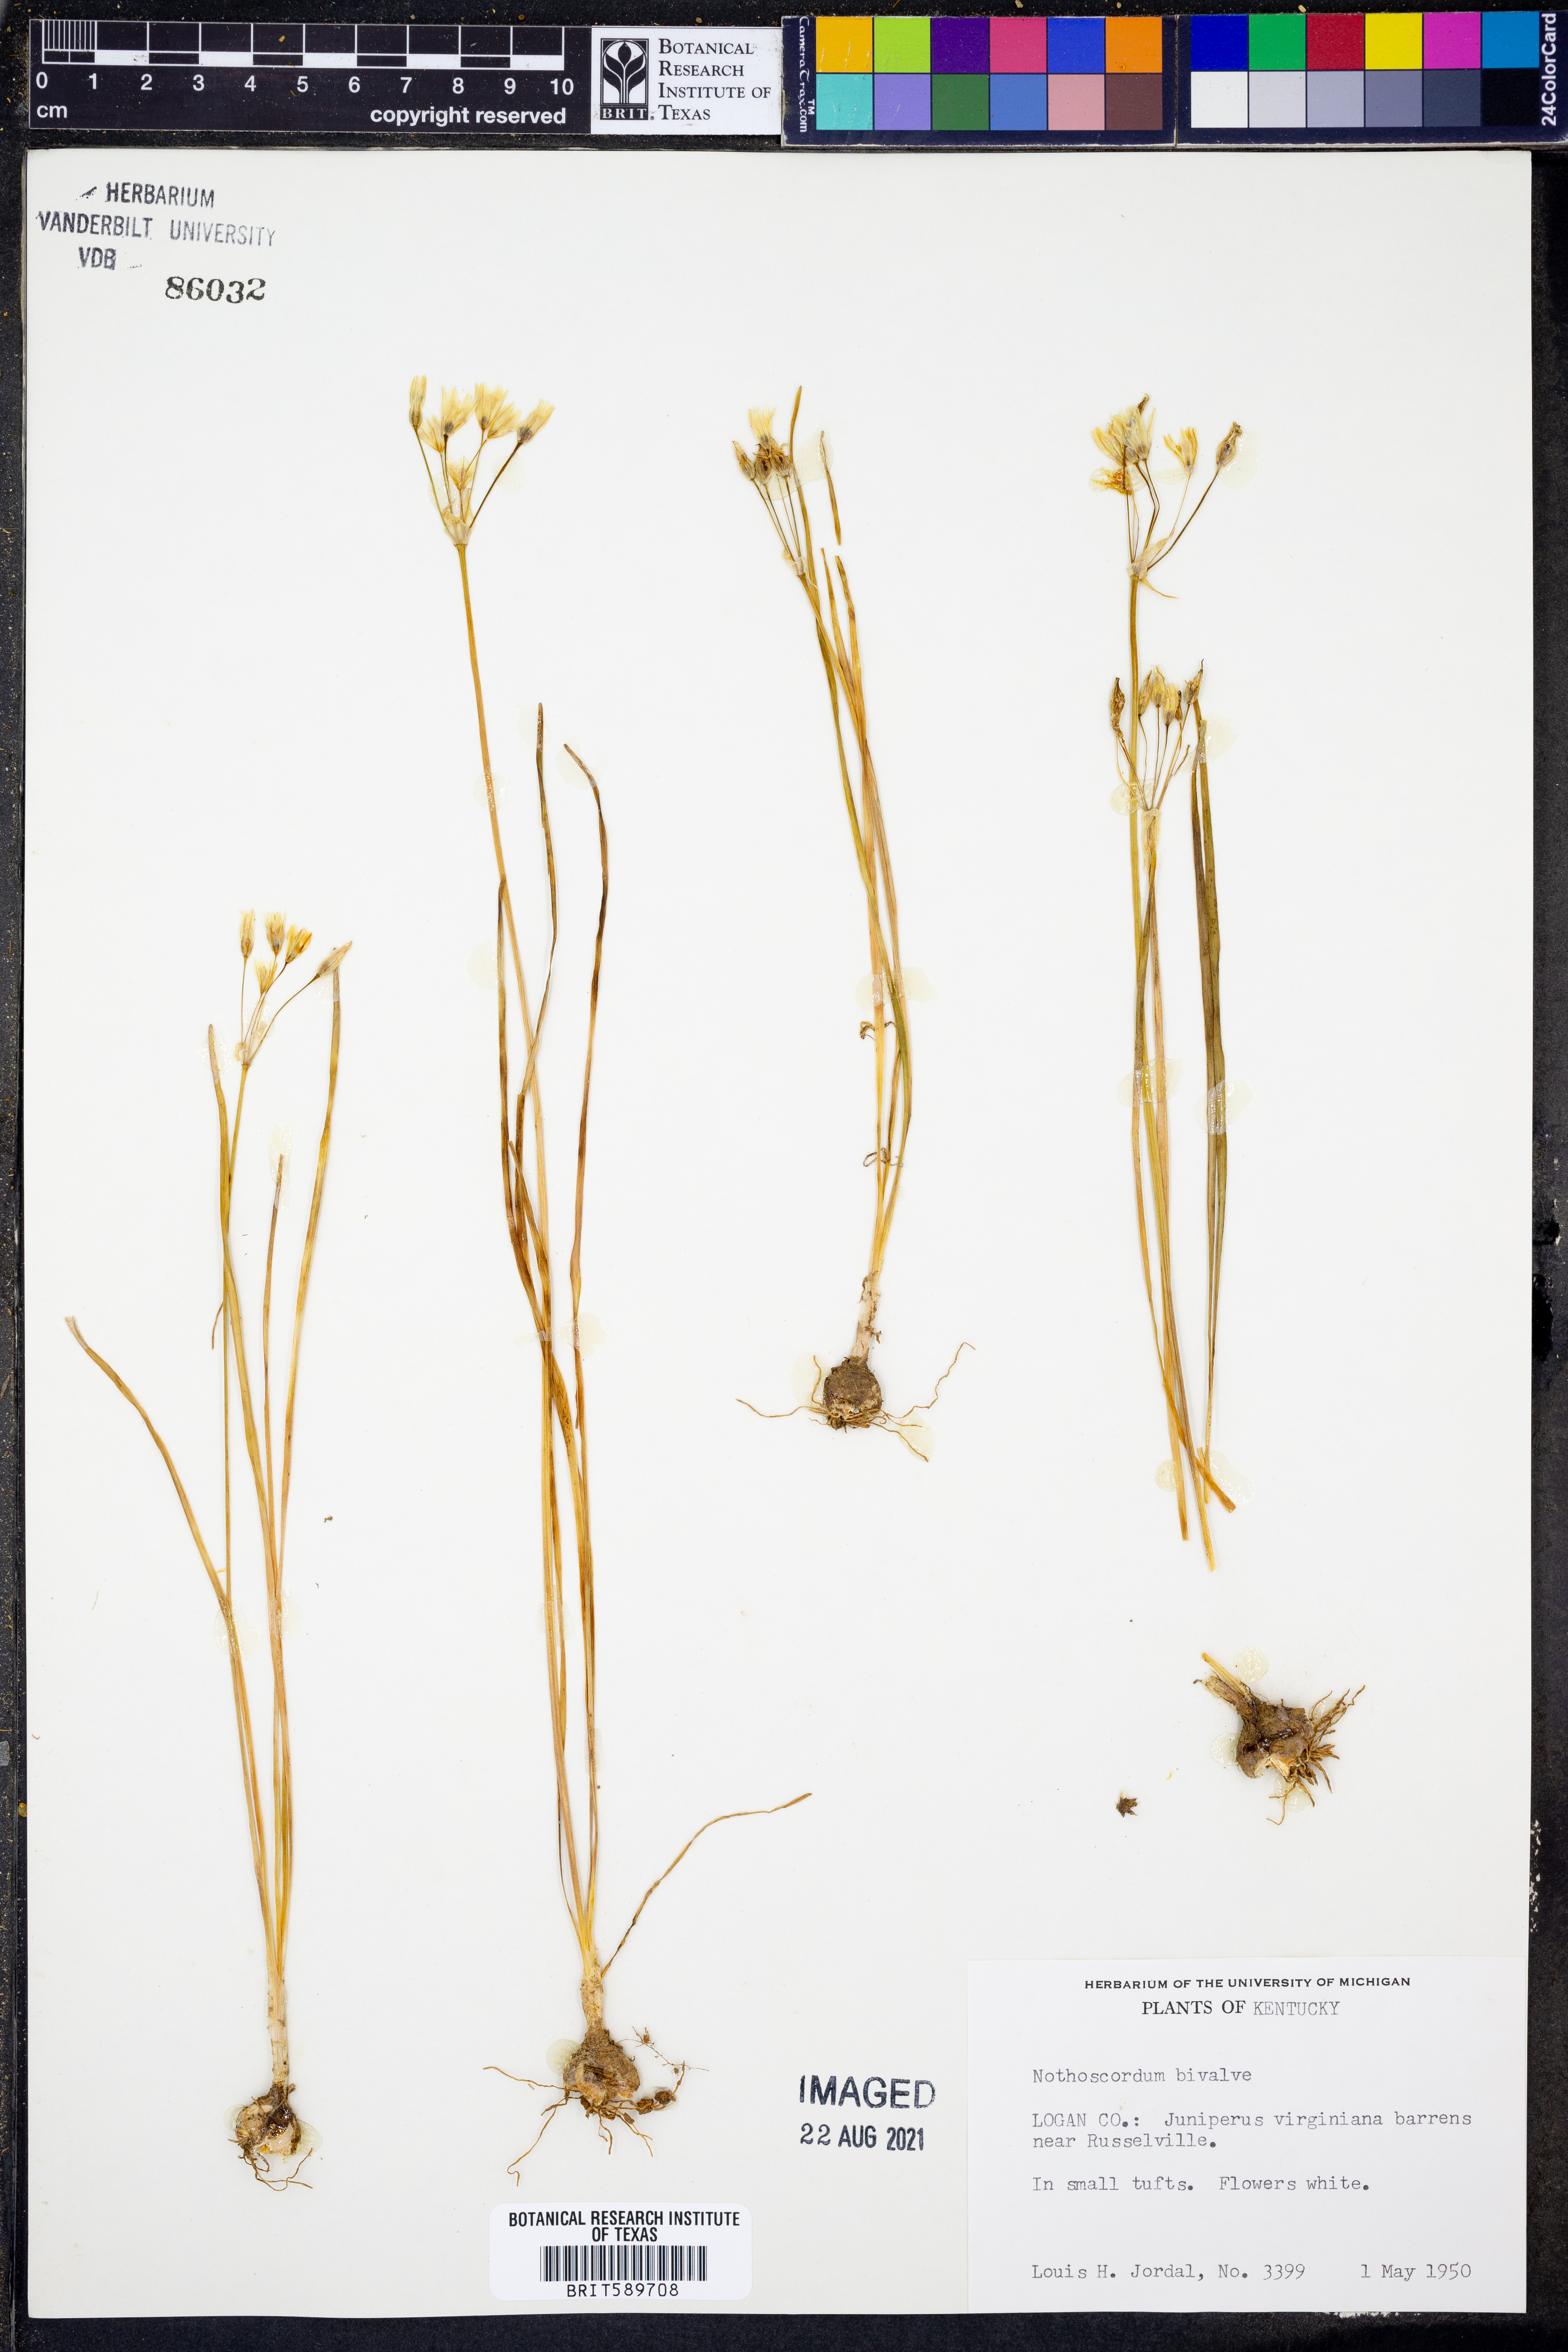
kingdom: Plantae
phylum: Tracheophyta
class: Liliopsida
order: Asparagales
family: Amaryllidaceae
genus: Nothoscordum
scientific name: Nothoscordum bivalve
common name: Crow-poison
